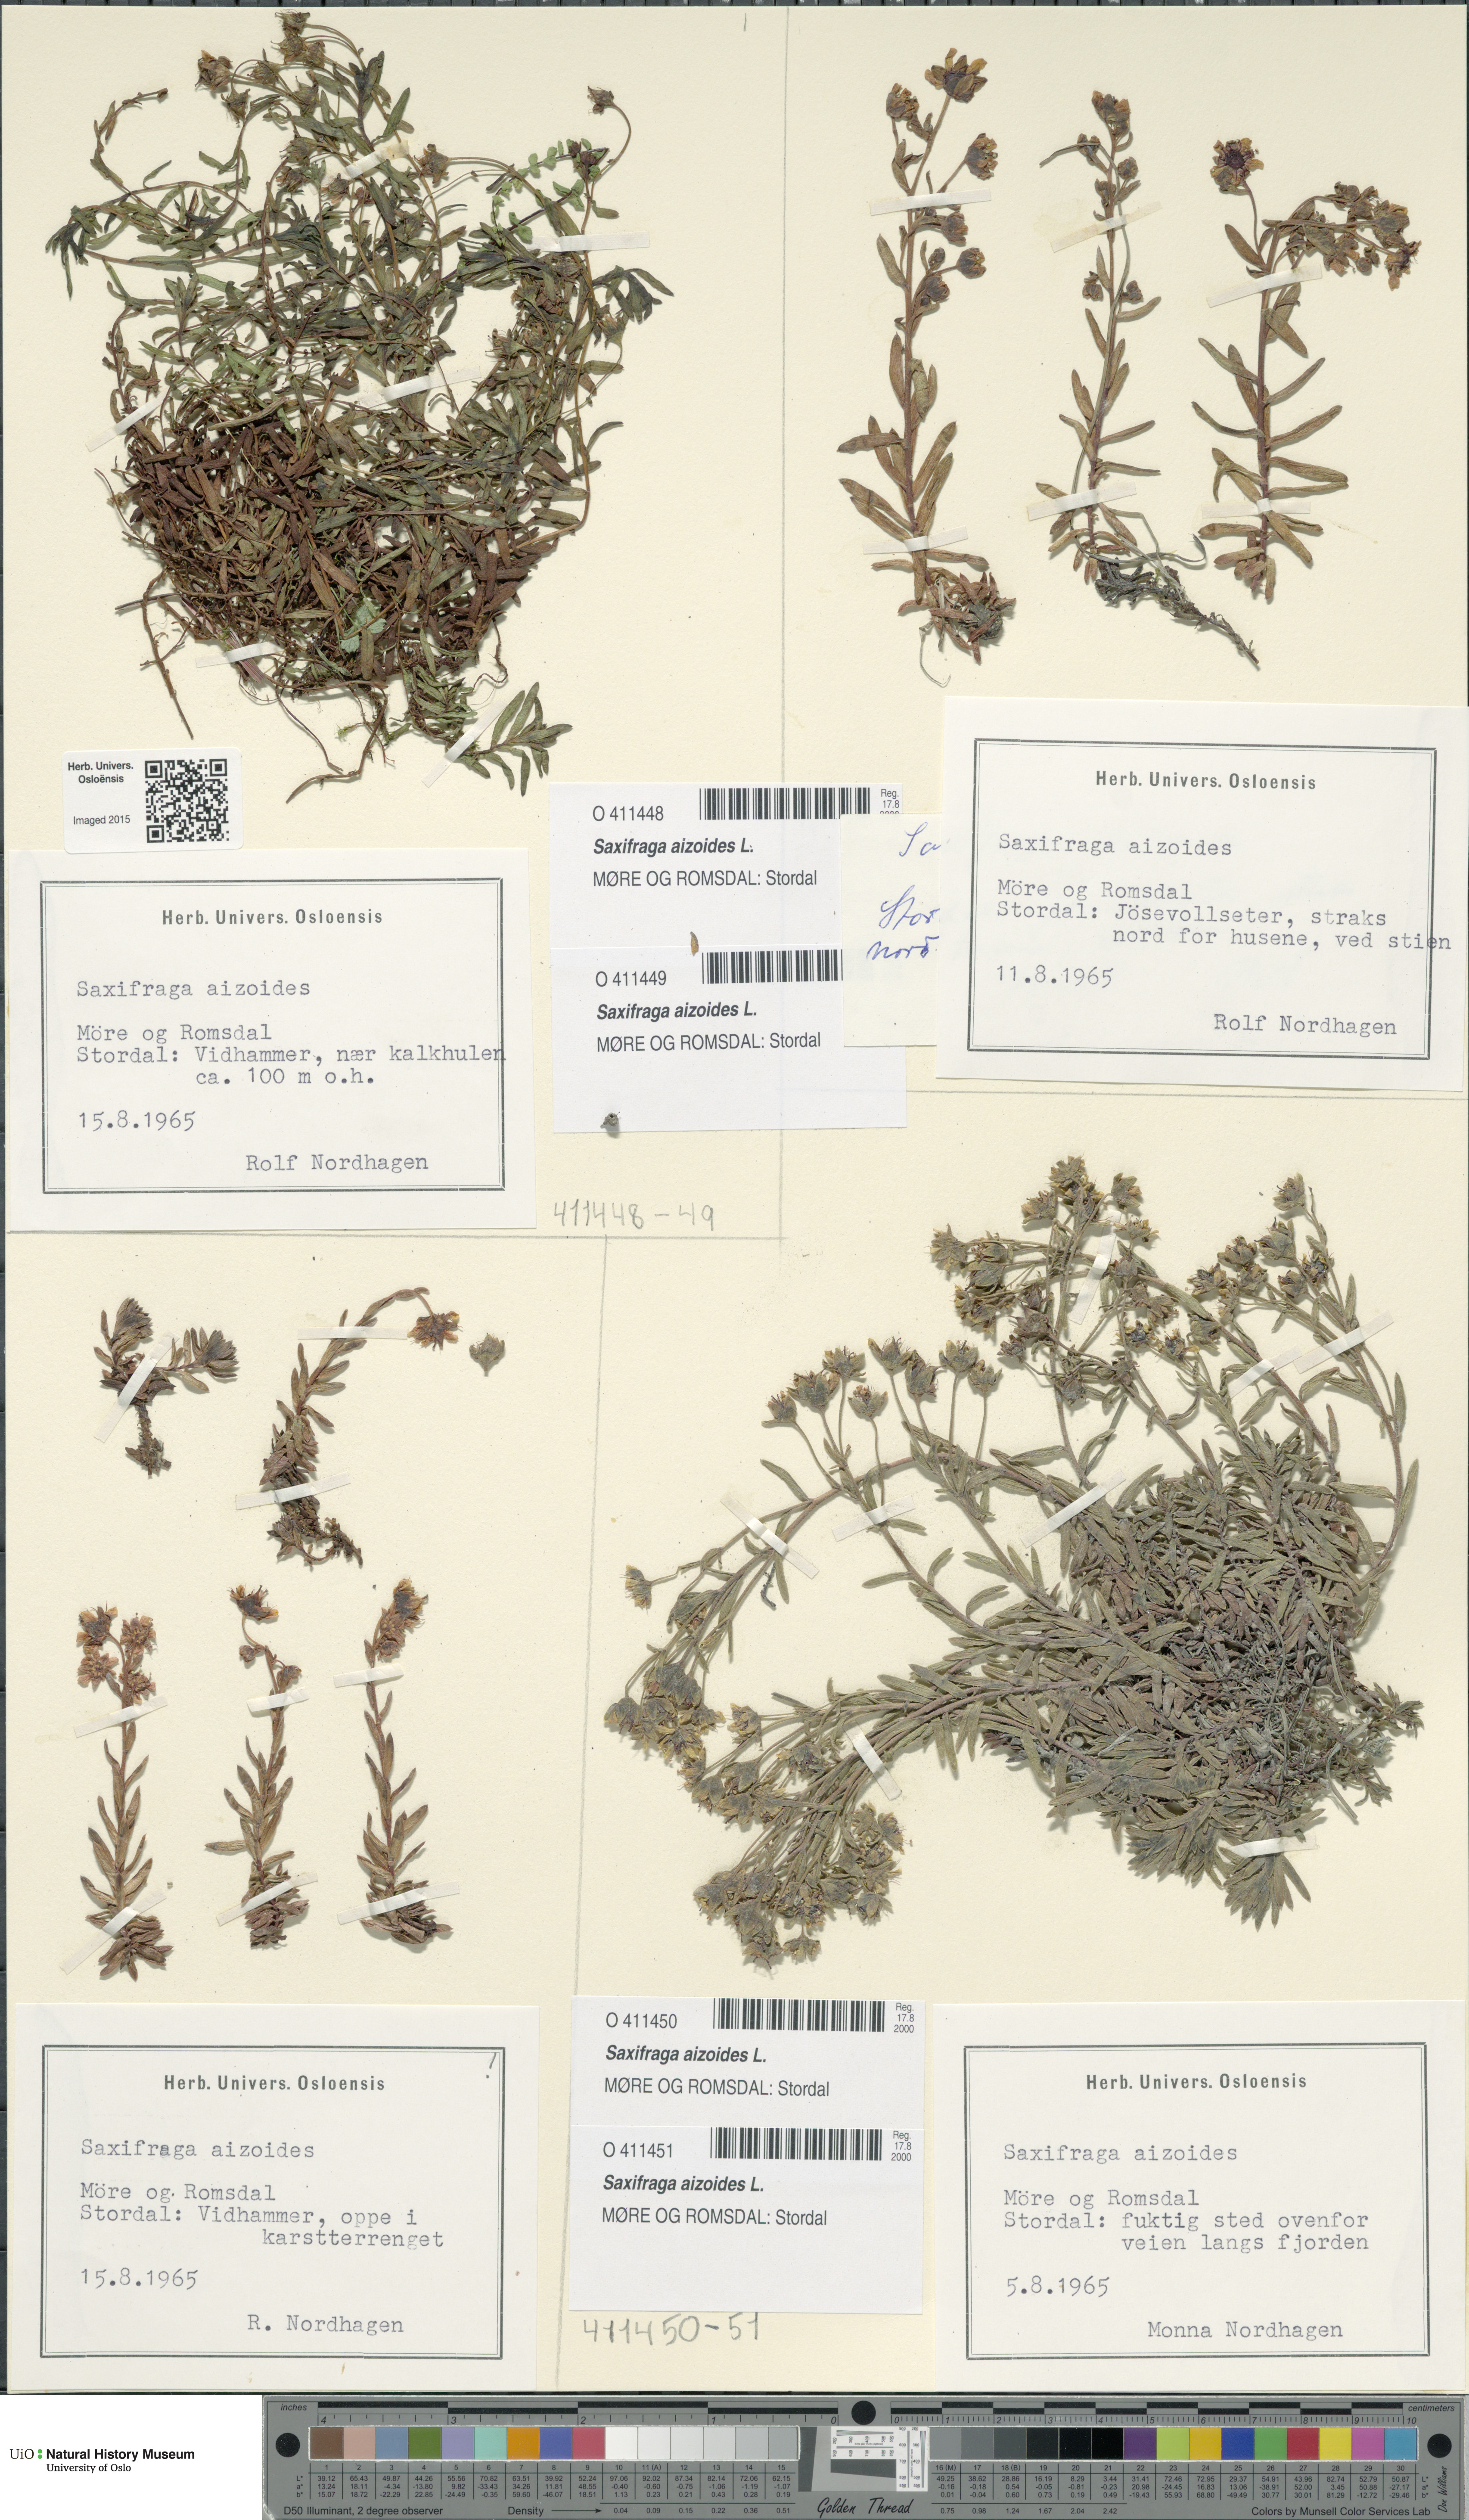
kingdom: Plantae
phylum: Tracheophyta
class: Magnoliopsida
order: Saxifragales
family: Saxifragaceae
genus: Saxifraga
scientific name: Saxifraga aizoides
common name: Yellow mountain saxifrage
